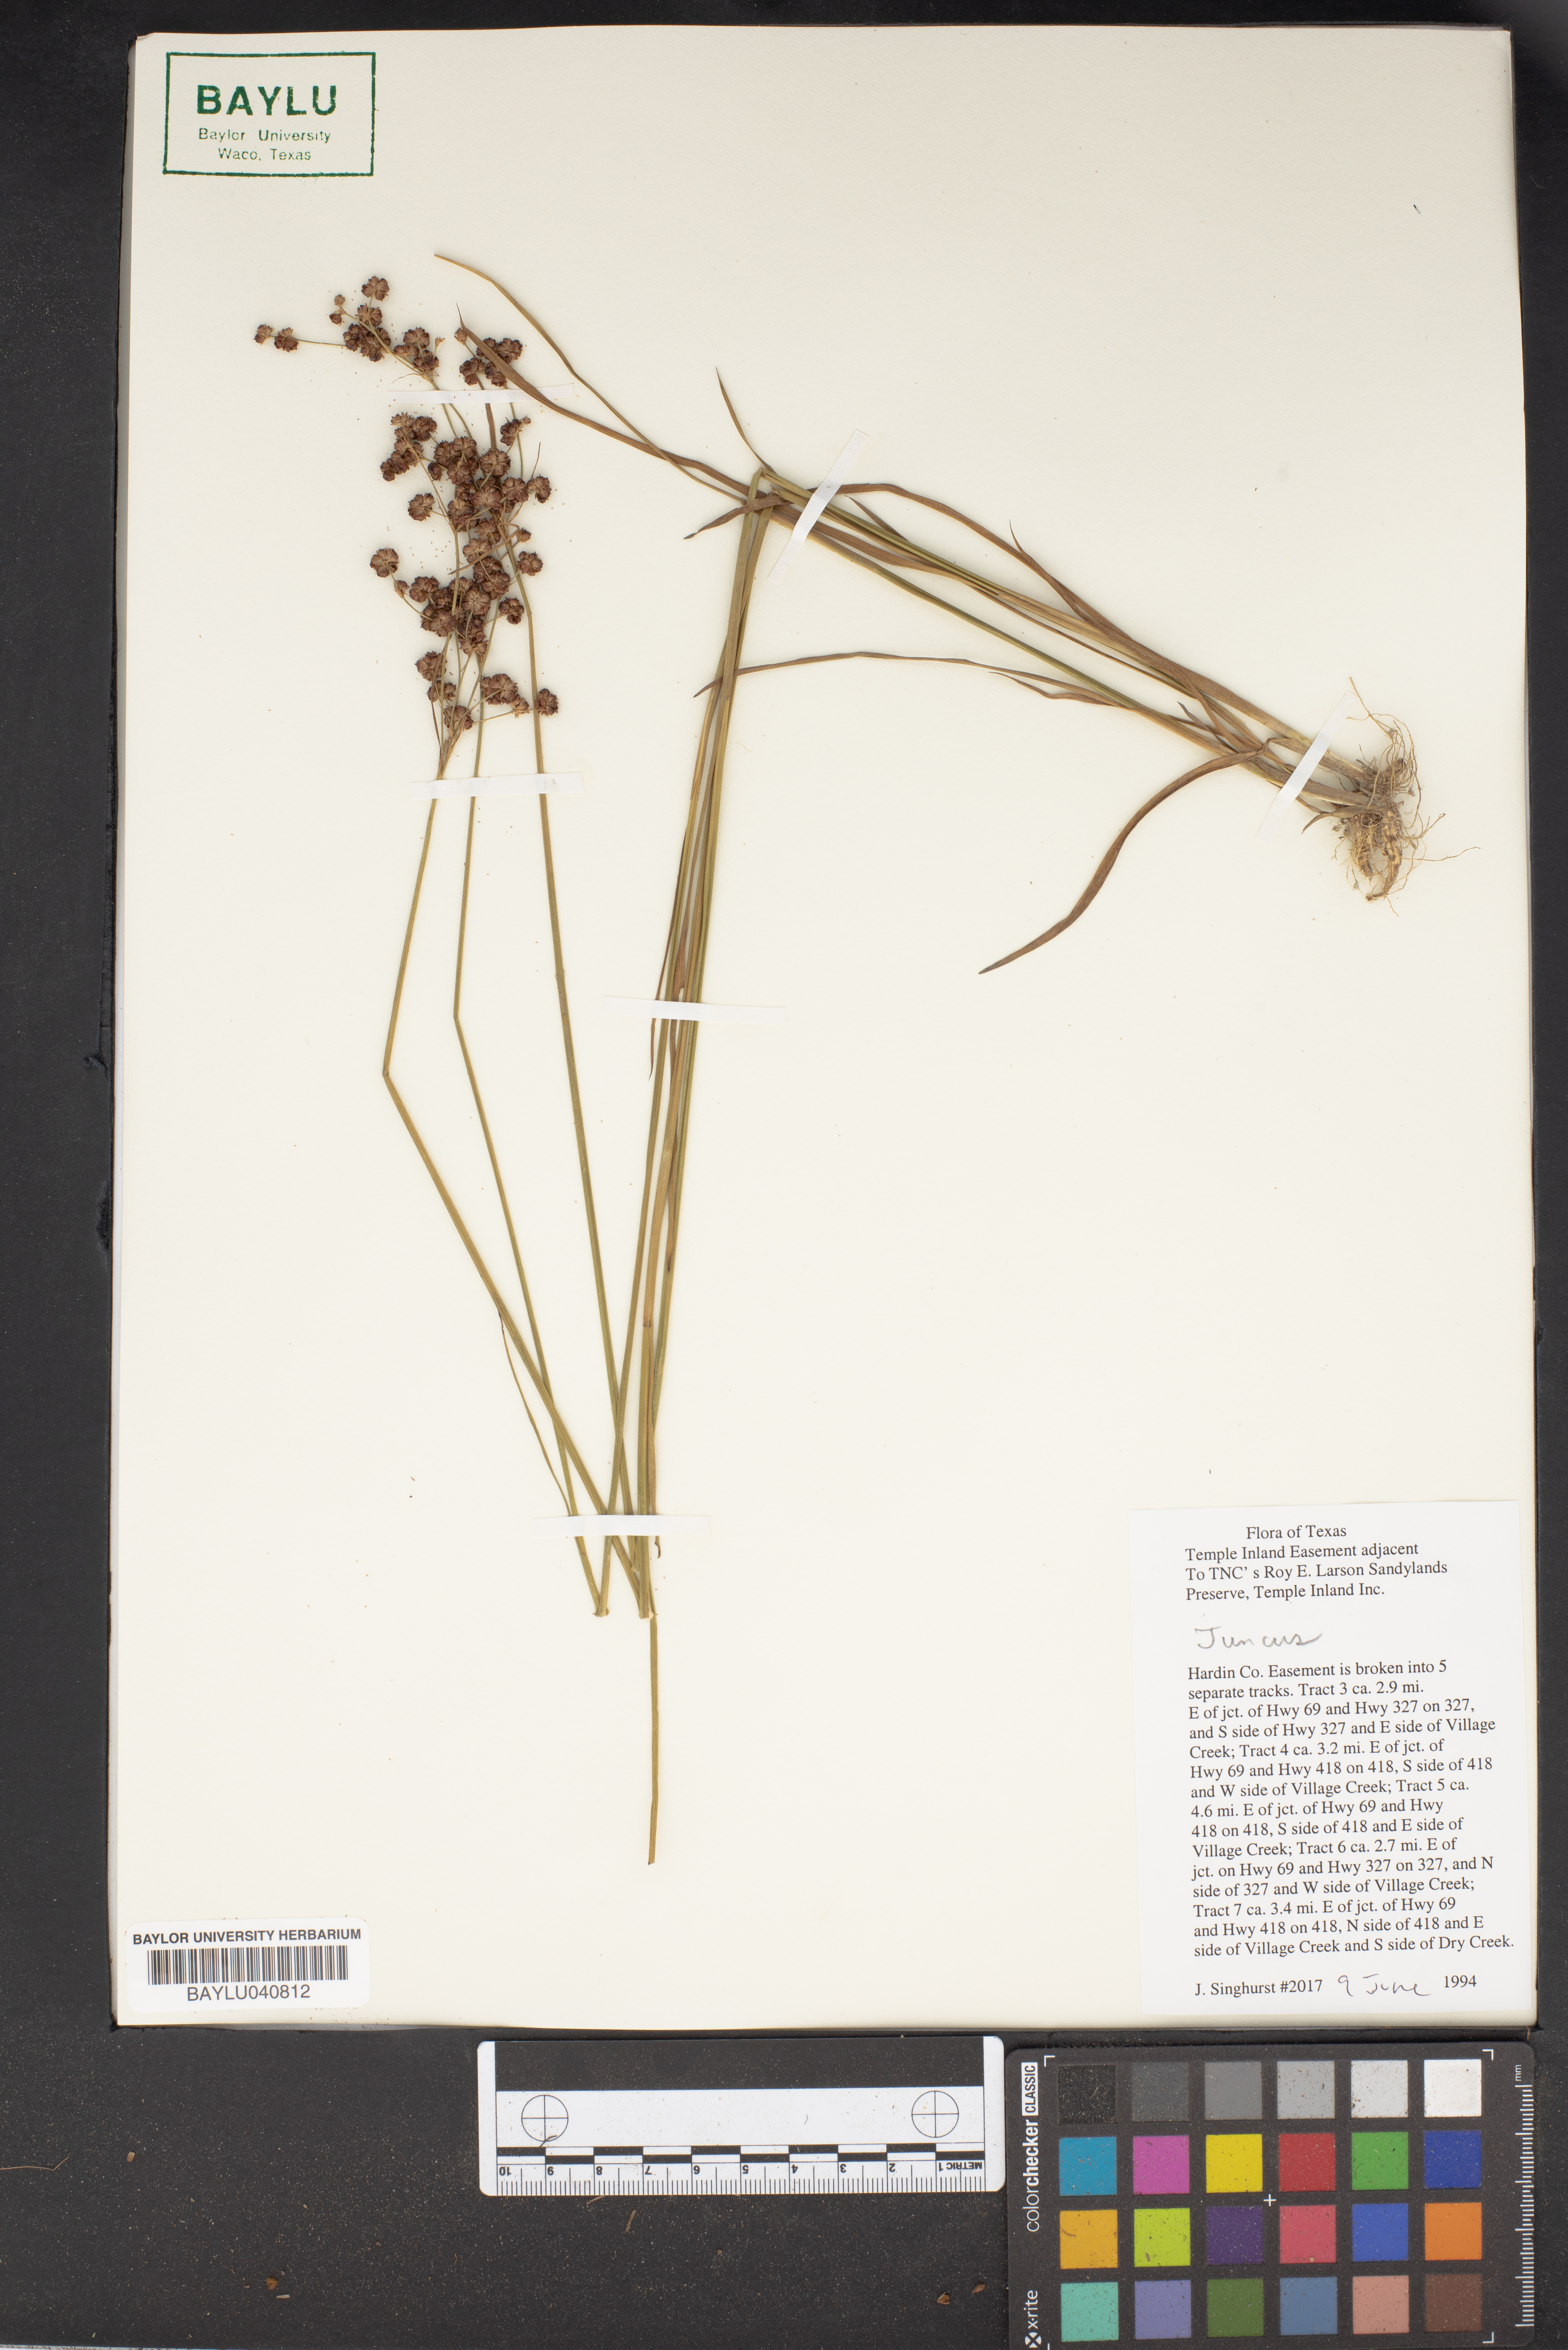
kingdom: Plantae
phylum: Tracheophyta
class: Liliopsida
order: Poales
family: Juncaceae
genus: Juncus
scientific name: Juncus
